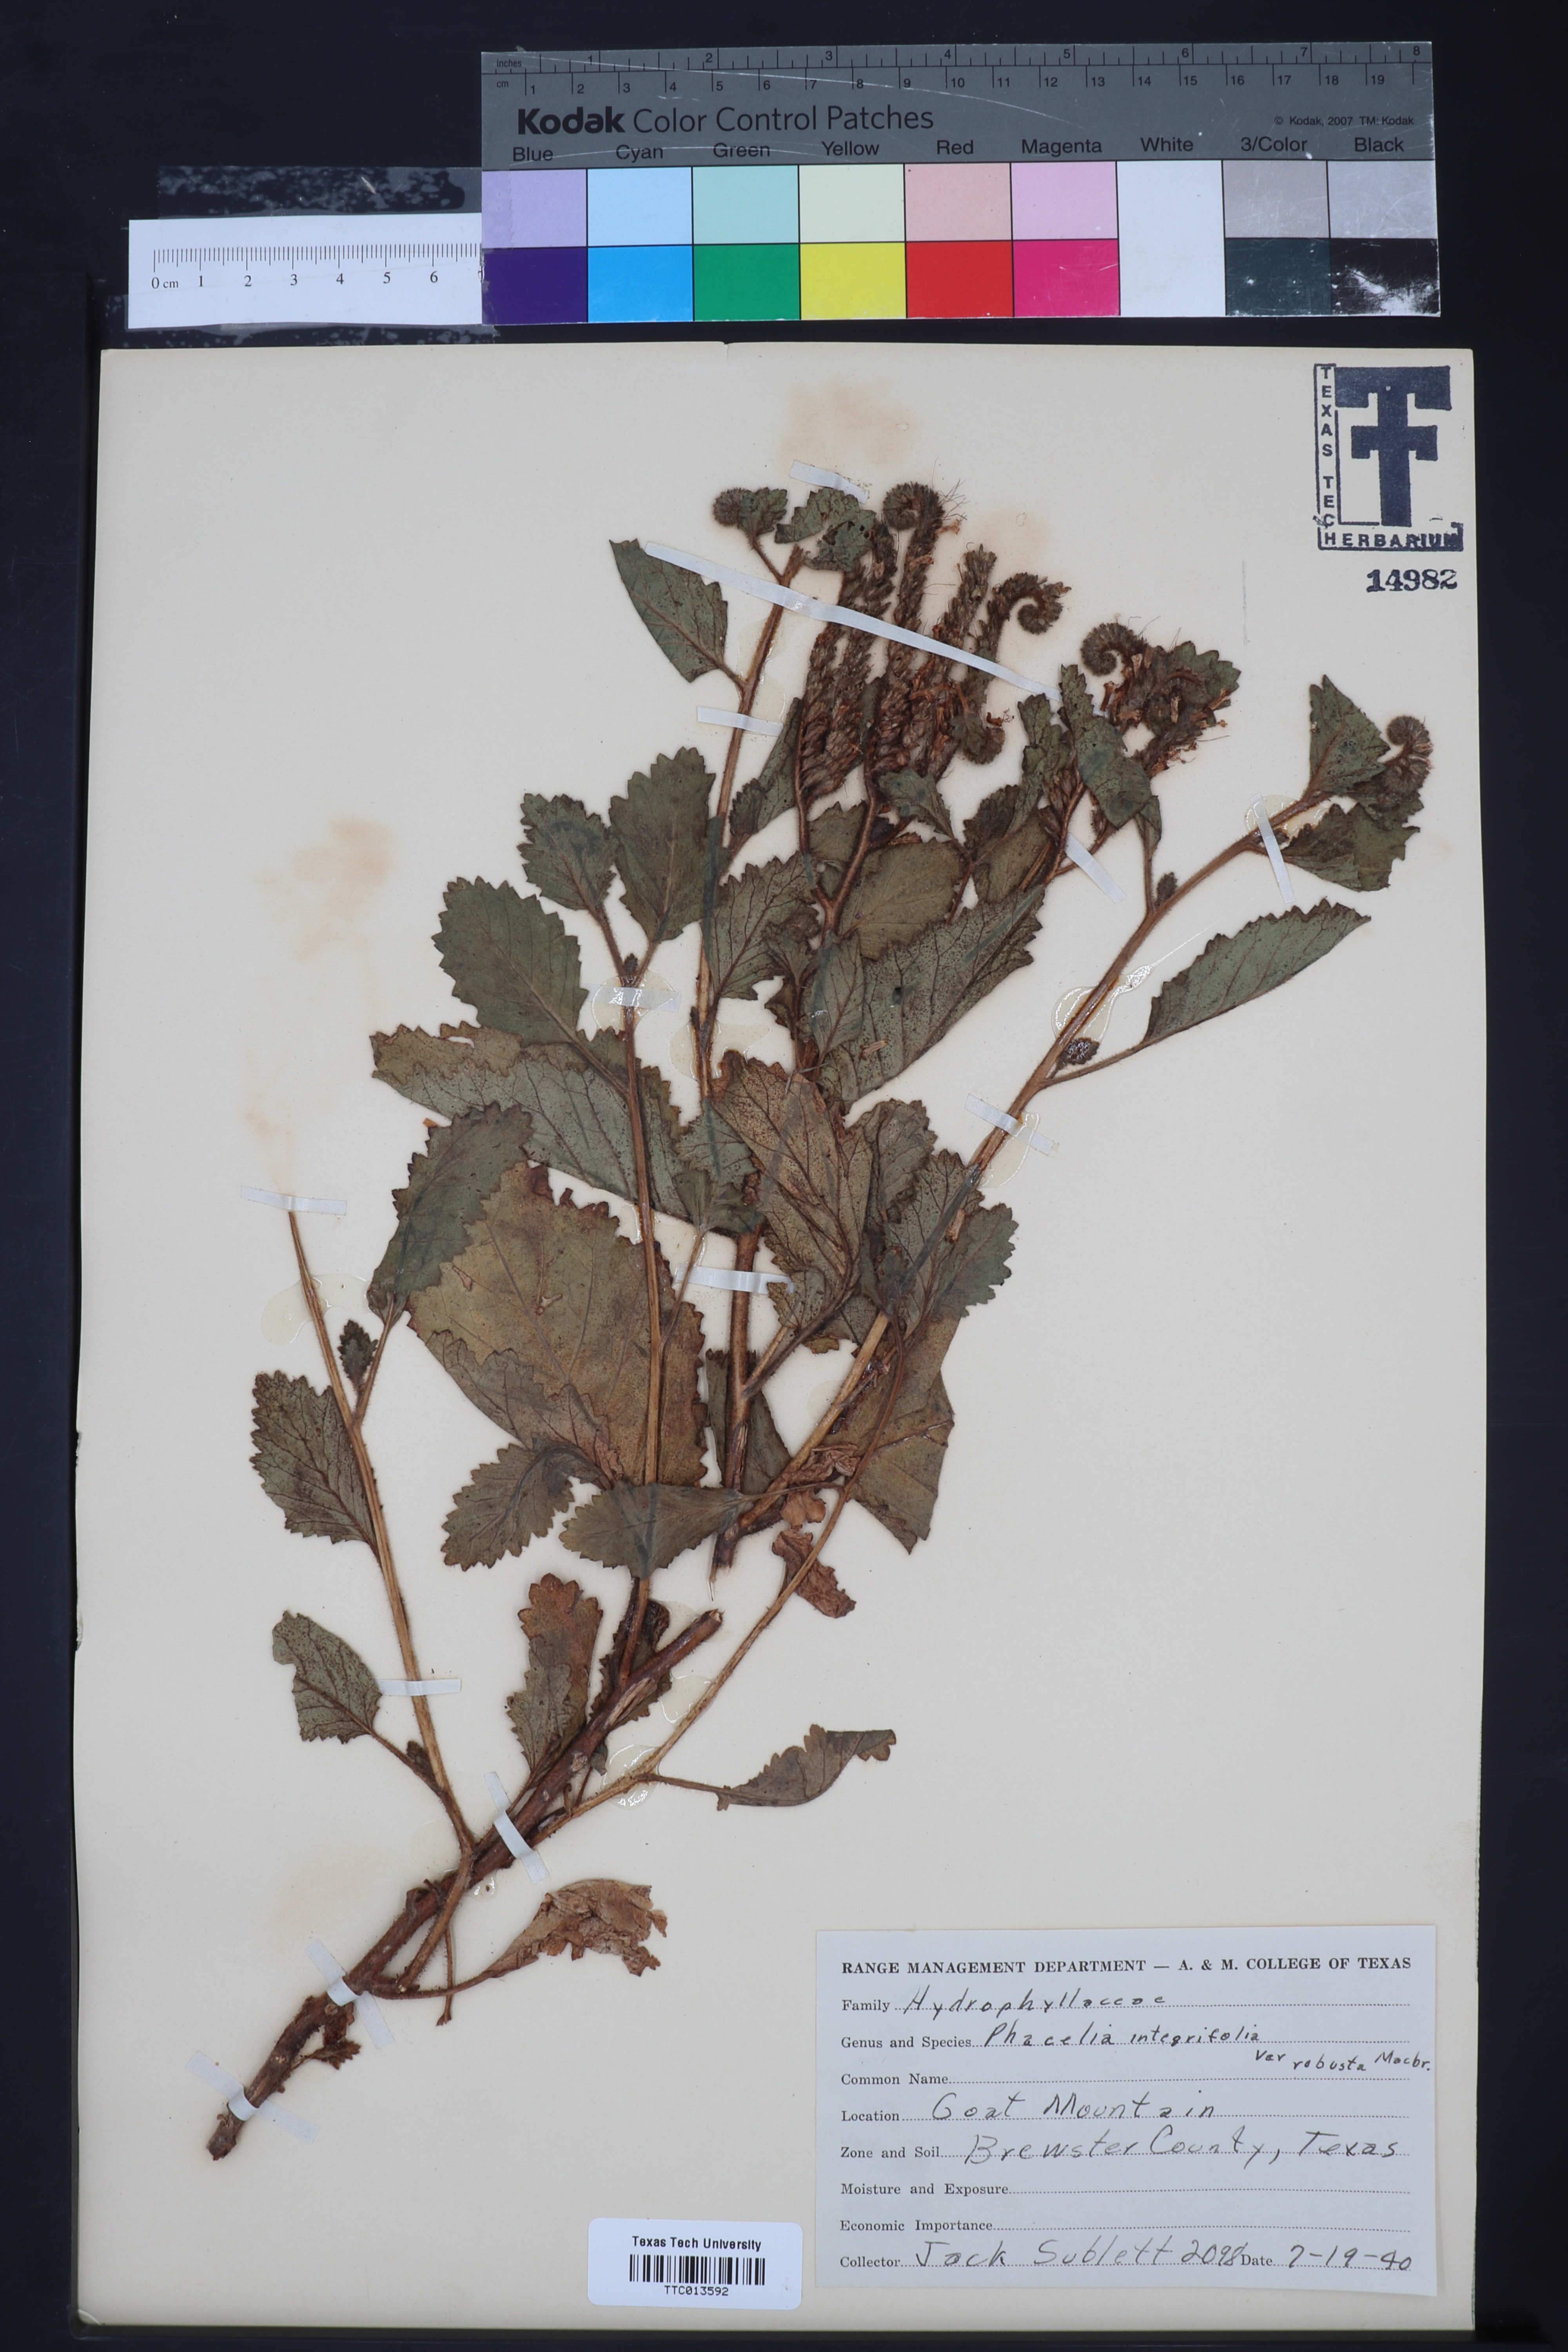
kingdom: Plantae
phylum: Tracheophyta
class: Magnoliopsida
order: Boraginales
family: Hydrophyllaceae
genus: Phacelia
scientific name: Phacelia integrifolia
